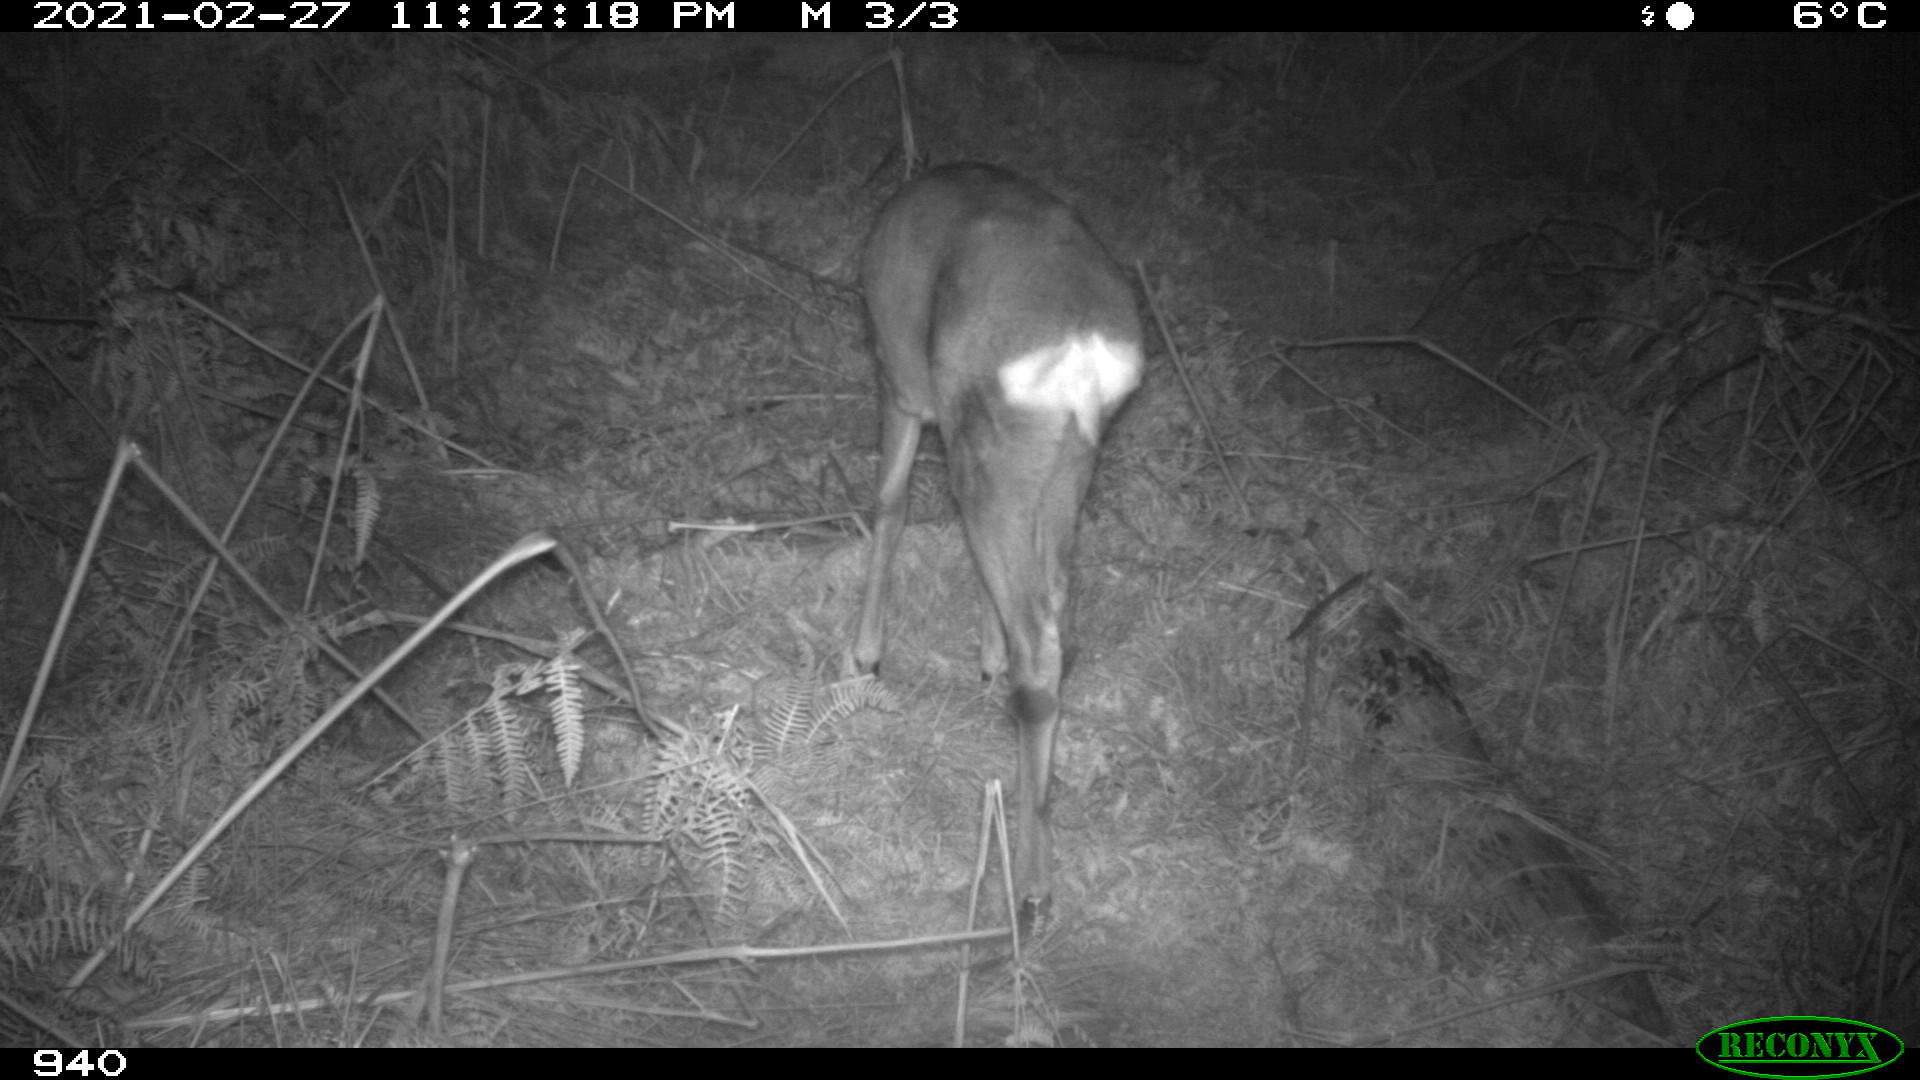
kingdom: Animalia
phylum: Chordata
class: Mammalia
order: Artiodactyla
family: Cervidae
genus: Capreolus
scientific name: Capreolus capreolus
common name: Western roe deer
